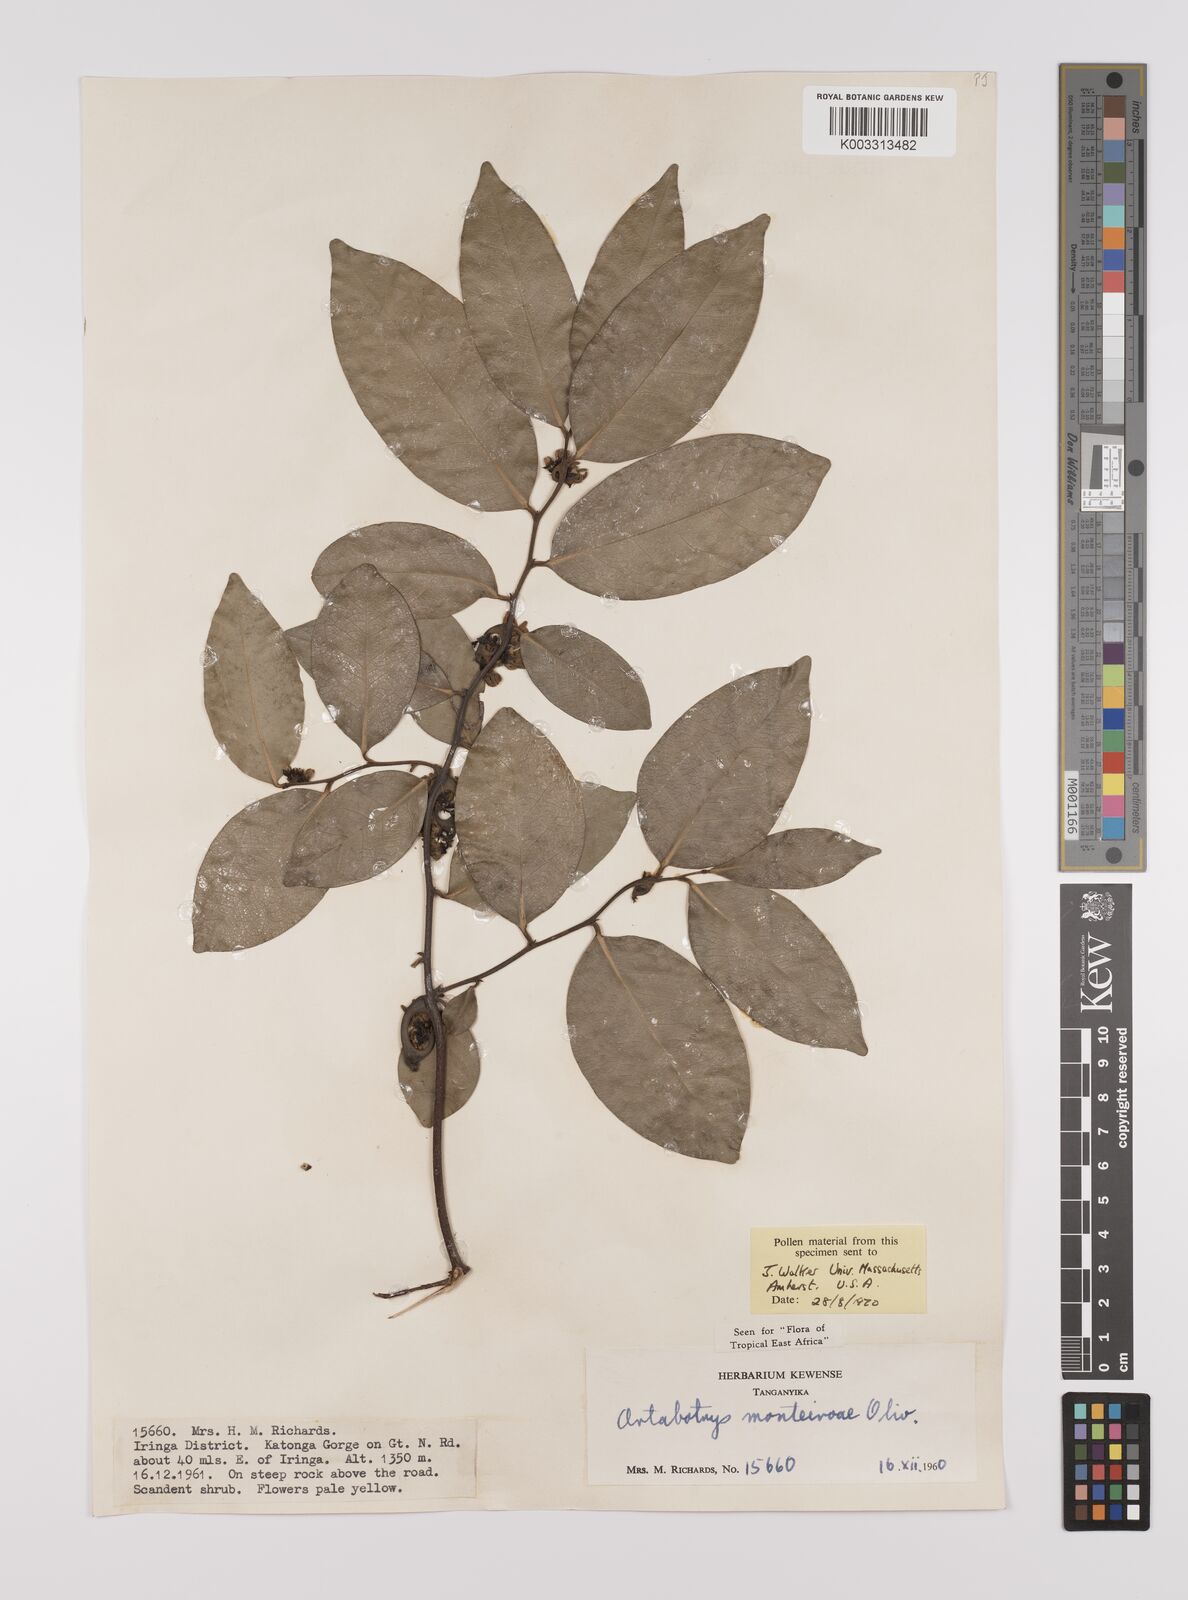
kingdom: Plantae
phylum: Tracheophyta
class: Magnoliopsida
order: Magnoliales
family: Annonaceae
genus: Artabotrys
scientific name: Artabotrys monteiroae
